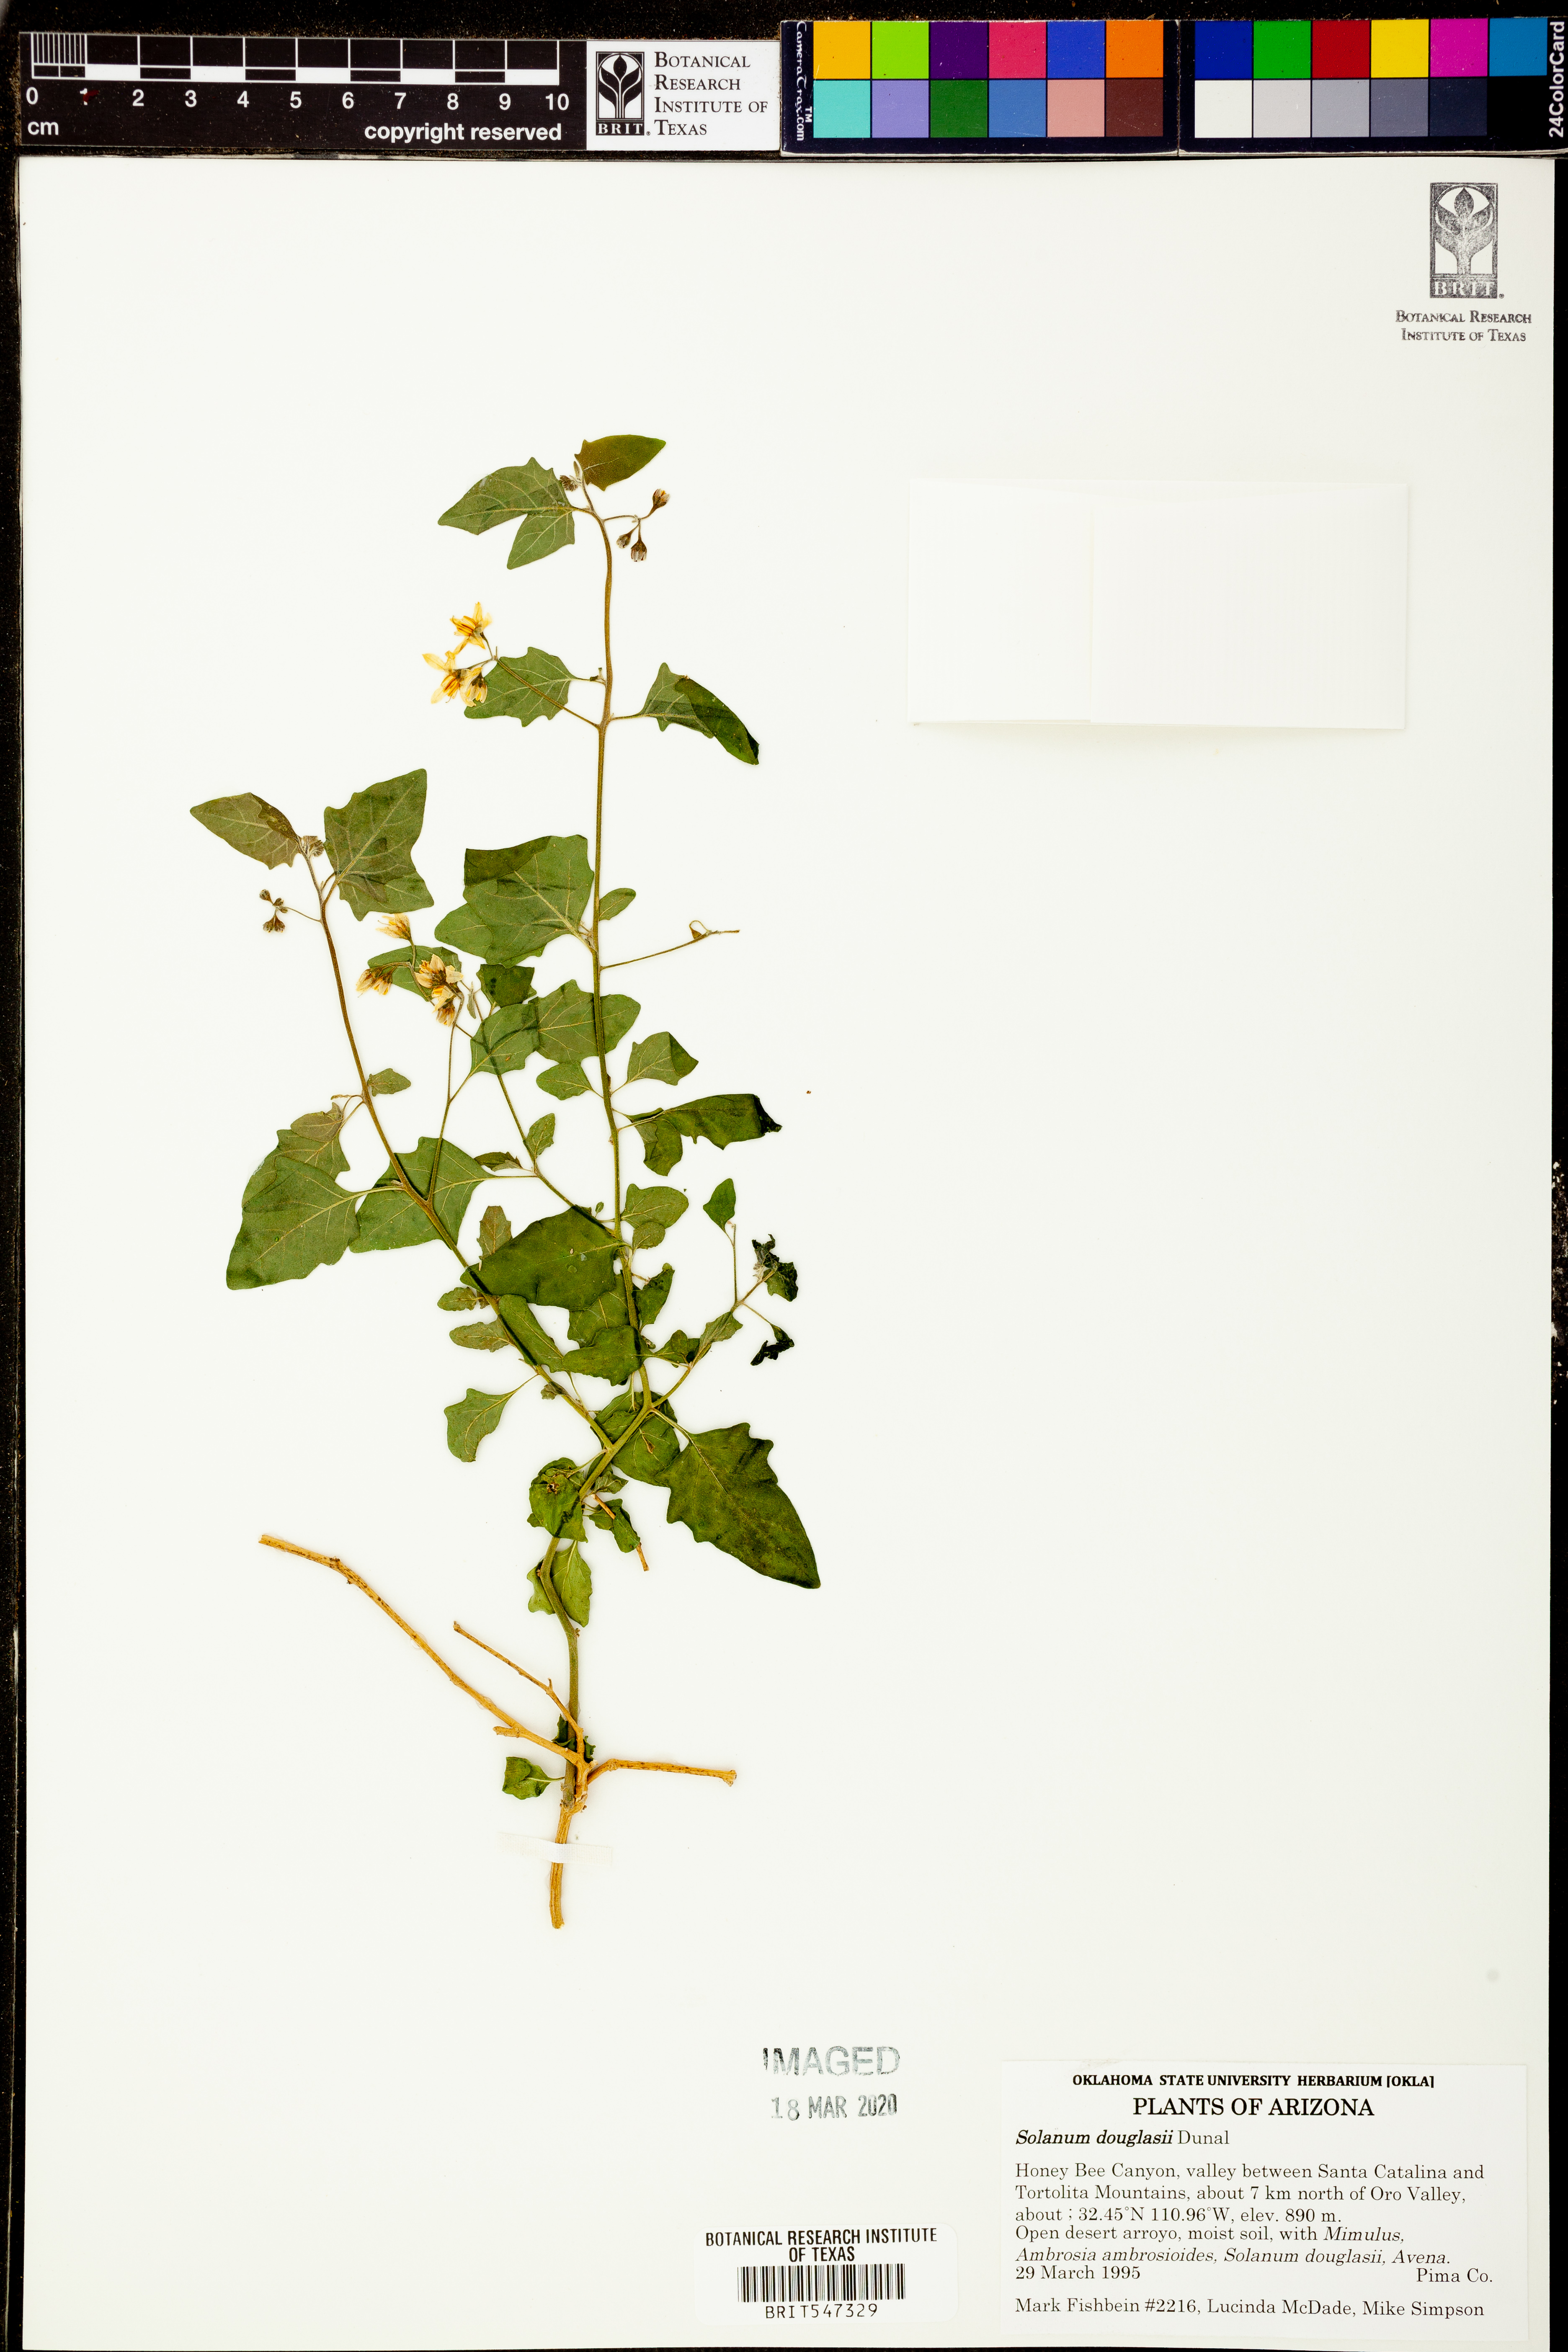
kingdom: Plantae
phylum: Tracheophyta
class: Magnoliopsida
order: Solanales
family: Solanaceae
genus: Solanum
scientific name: Solanum douglasii
